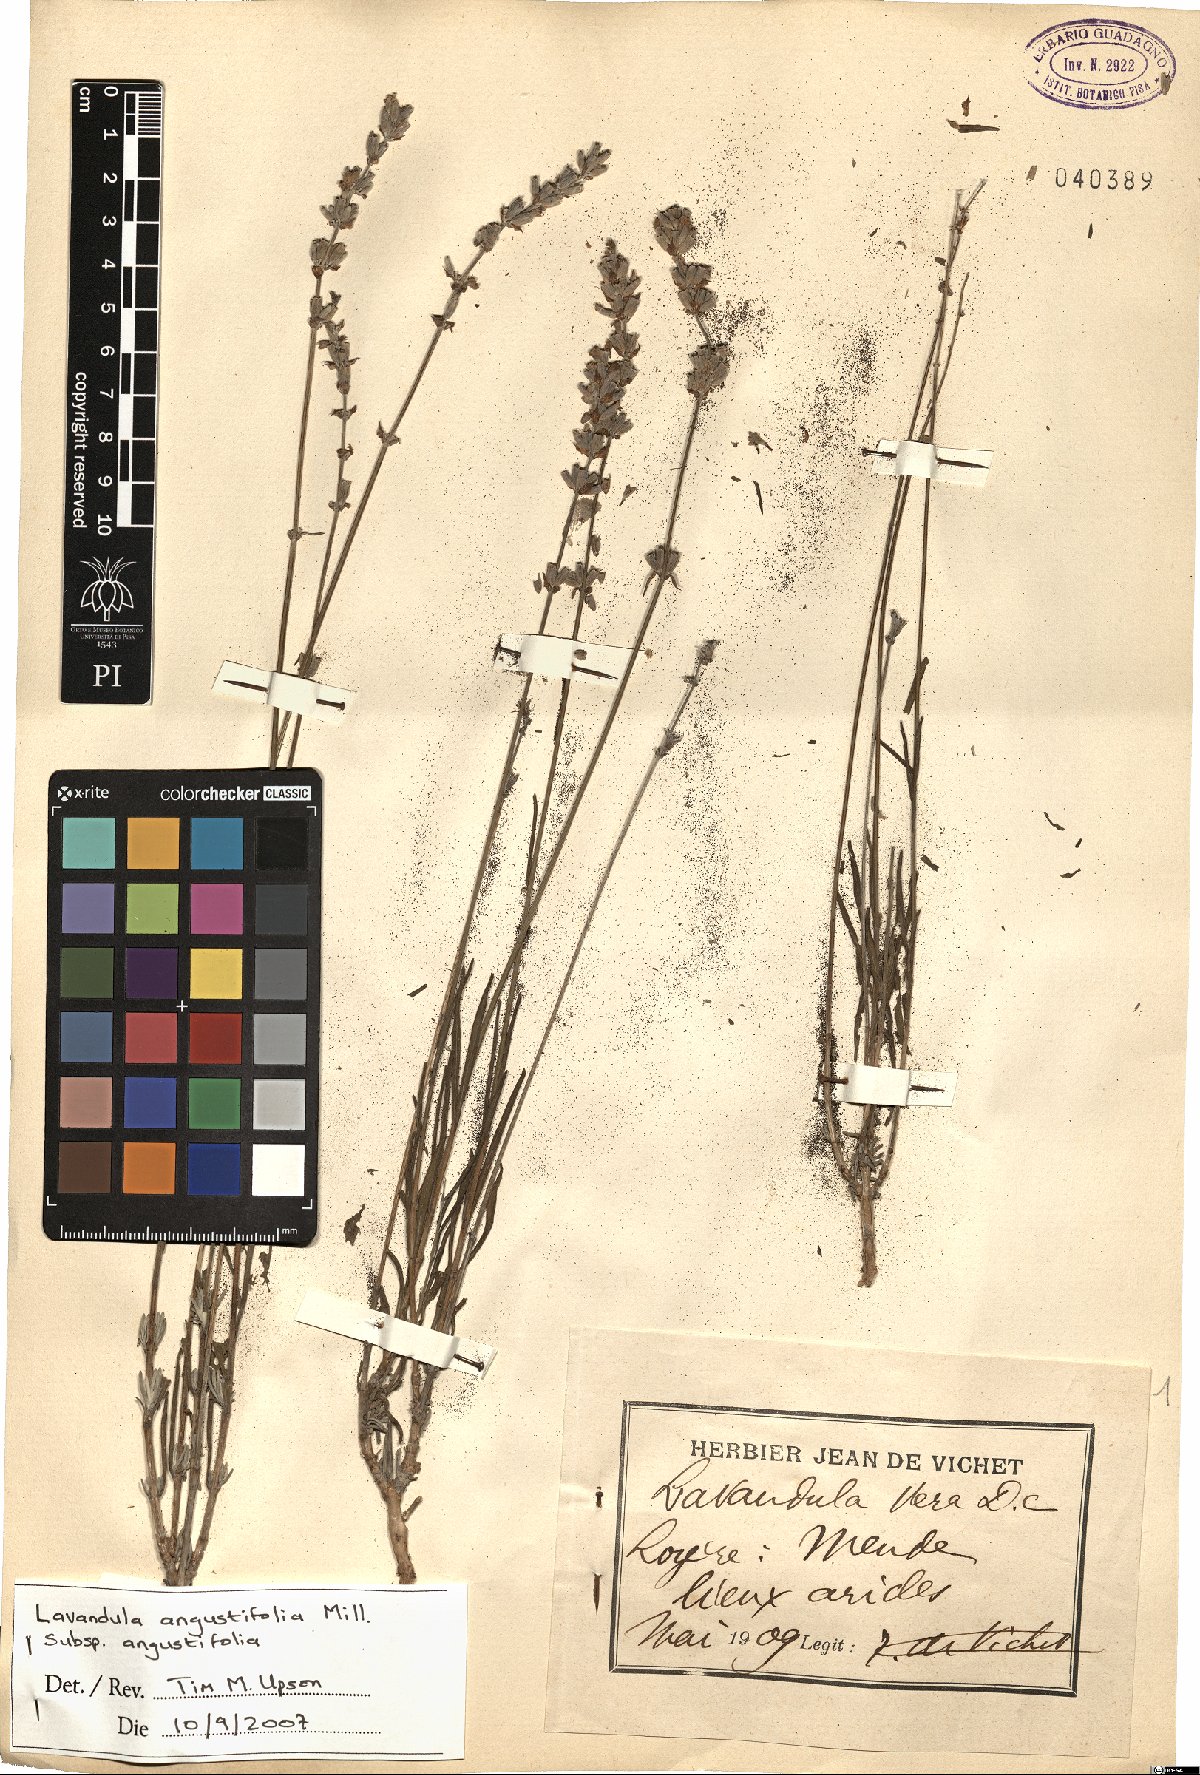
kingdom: Plantae
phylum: Tracheophyta
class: Magnoliopsida
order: Lamiales
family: Lamiaceae
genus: Lavandula
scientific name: Lavandula angustifolia
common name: Garden lavender
